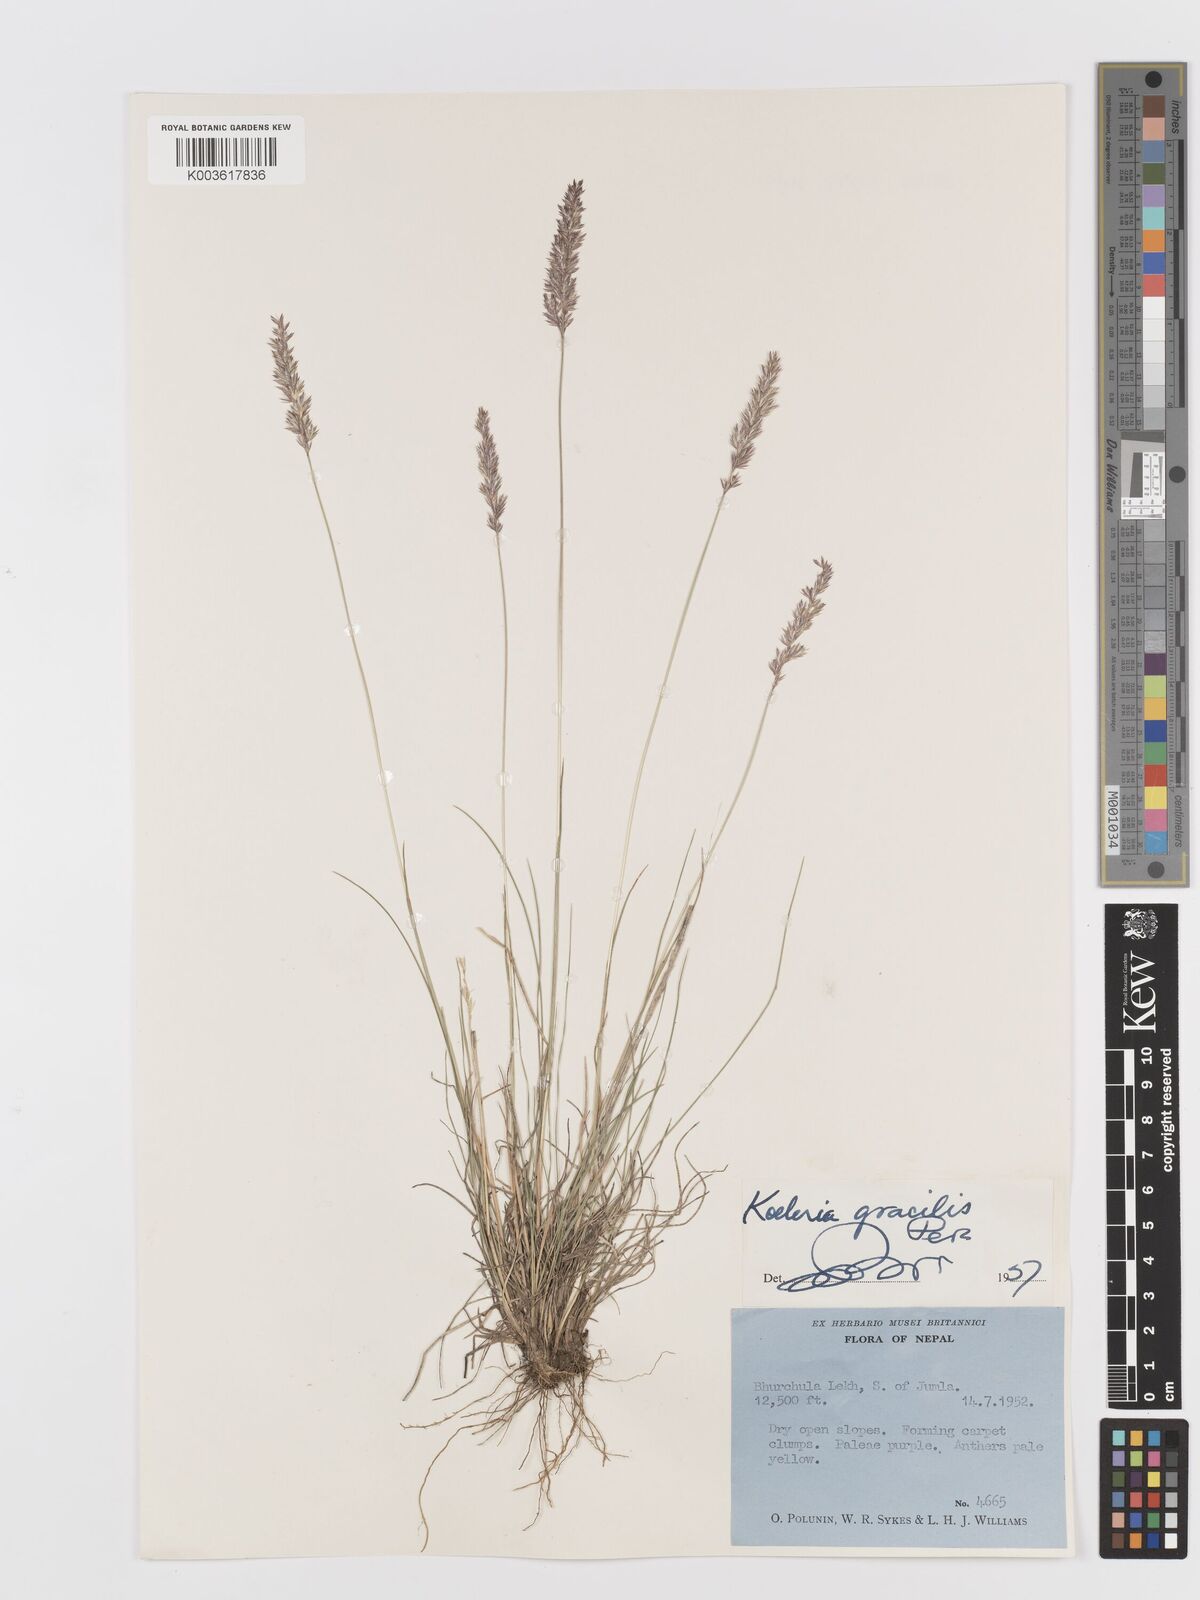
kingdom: Plantae
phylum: Tracheophyta
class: Liliopsida
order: Poales
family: Poaceae
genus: Koeleria
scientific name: Koeleria macrantha
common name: Crested hair-grass
